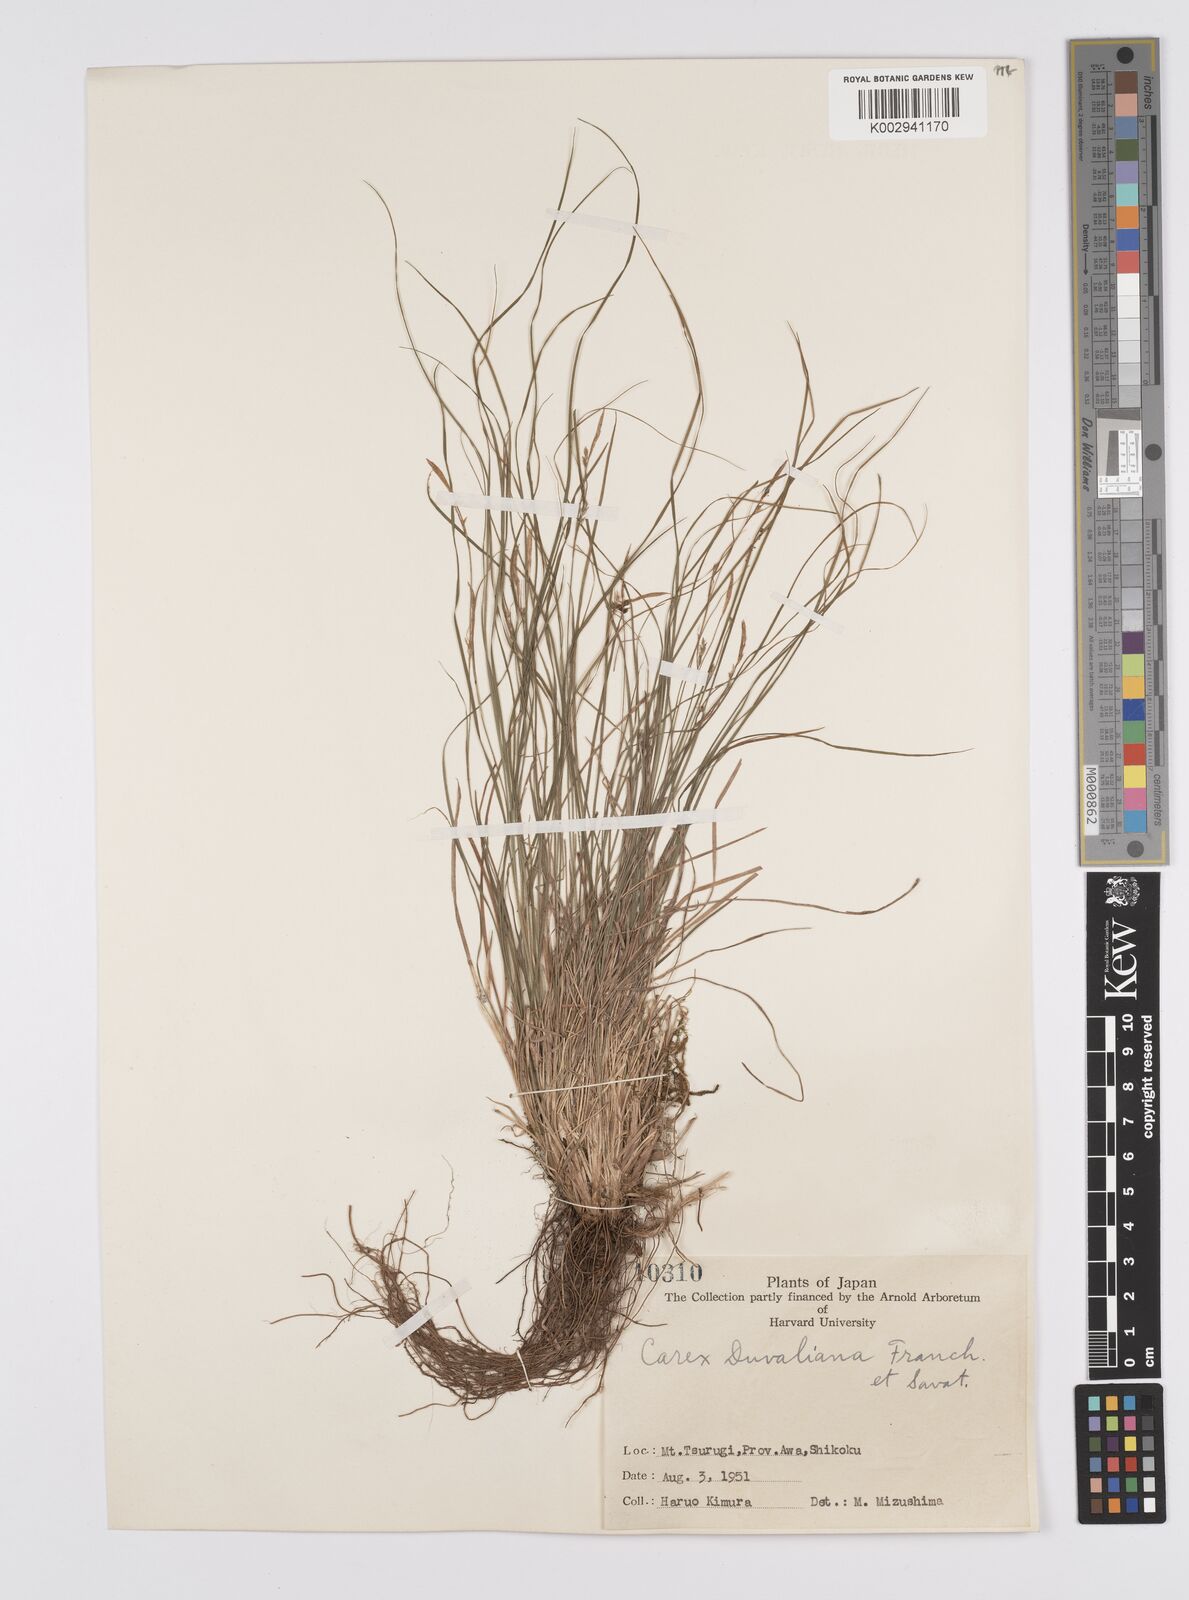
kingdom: Plantae
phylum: Tracheophyta
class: Liliopsida
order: Poales
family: Cyperaceae
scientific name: Cyperaceae
